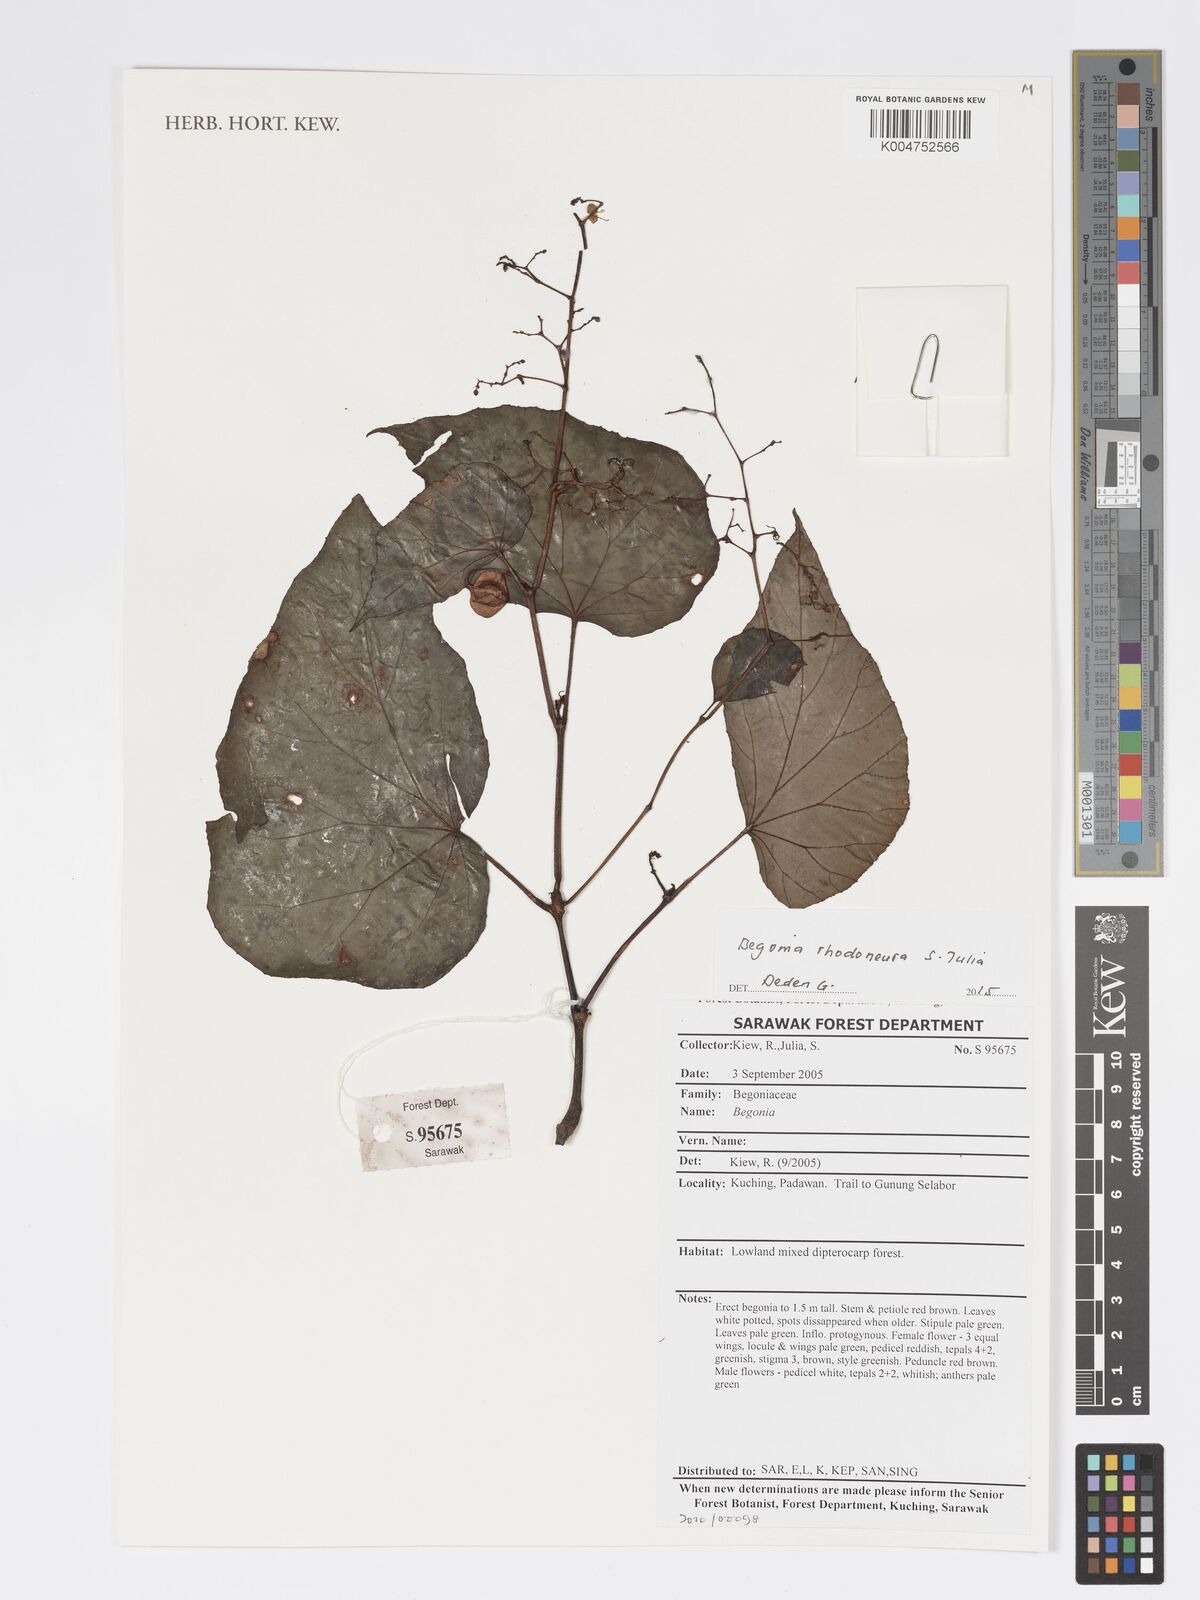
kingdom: Plantae
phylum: Tracheophyta
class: Magnoliopsida
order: Cucurbitales
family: Begoniaceae
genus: Begonia
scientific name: Begonia rhodoneura
